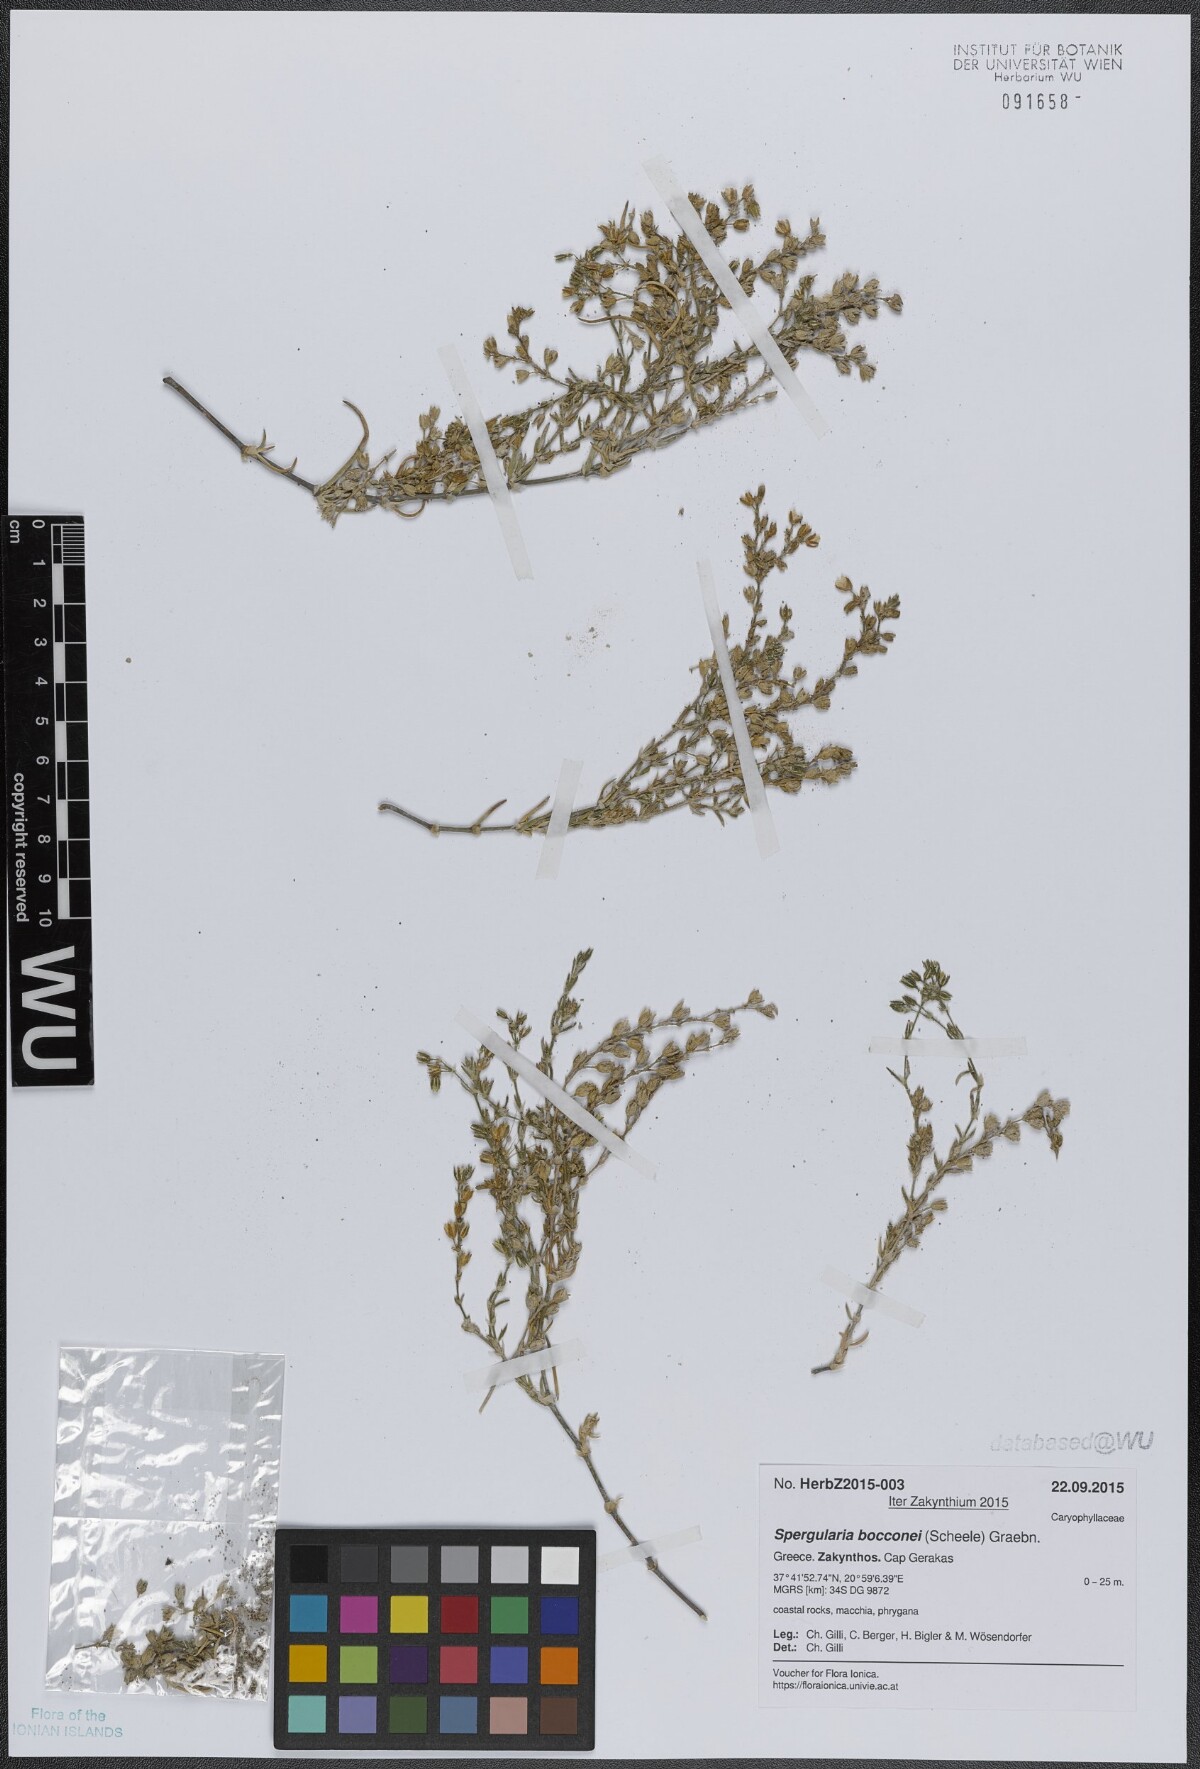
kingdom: Plantae
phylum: Tracheophyta
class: Magnoliopsida
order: Caryophyllales
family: Caryophyllaceae
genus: Spergularia
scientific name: Spergularia bocconei
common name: Greek sea-spurrey
